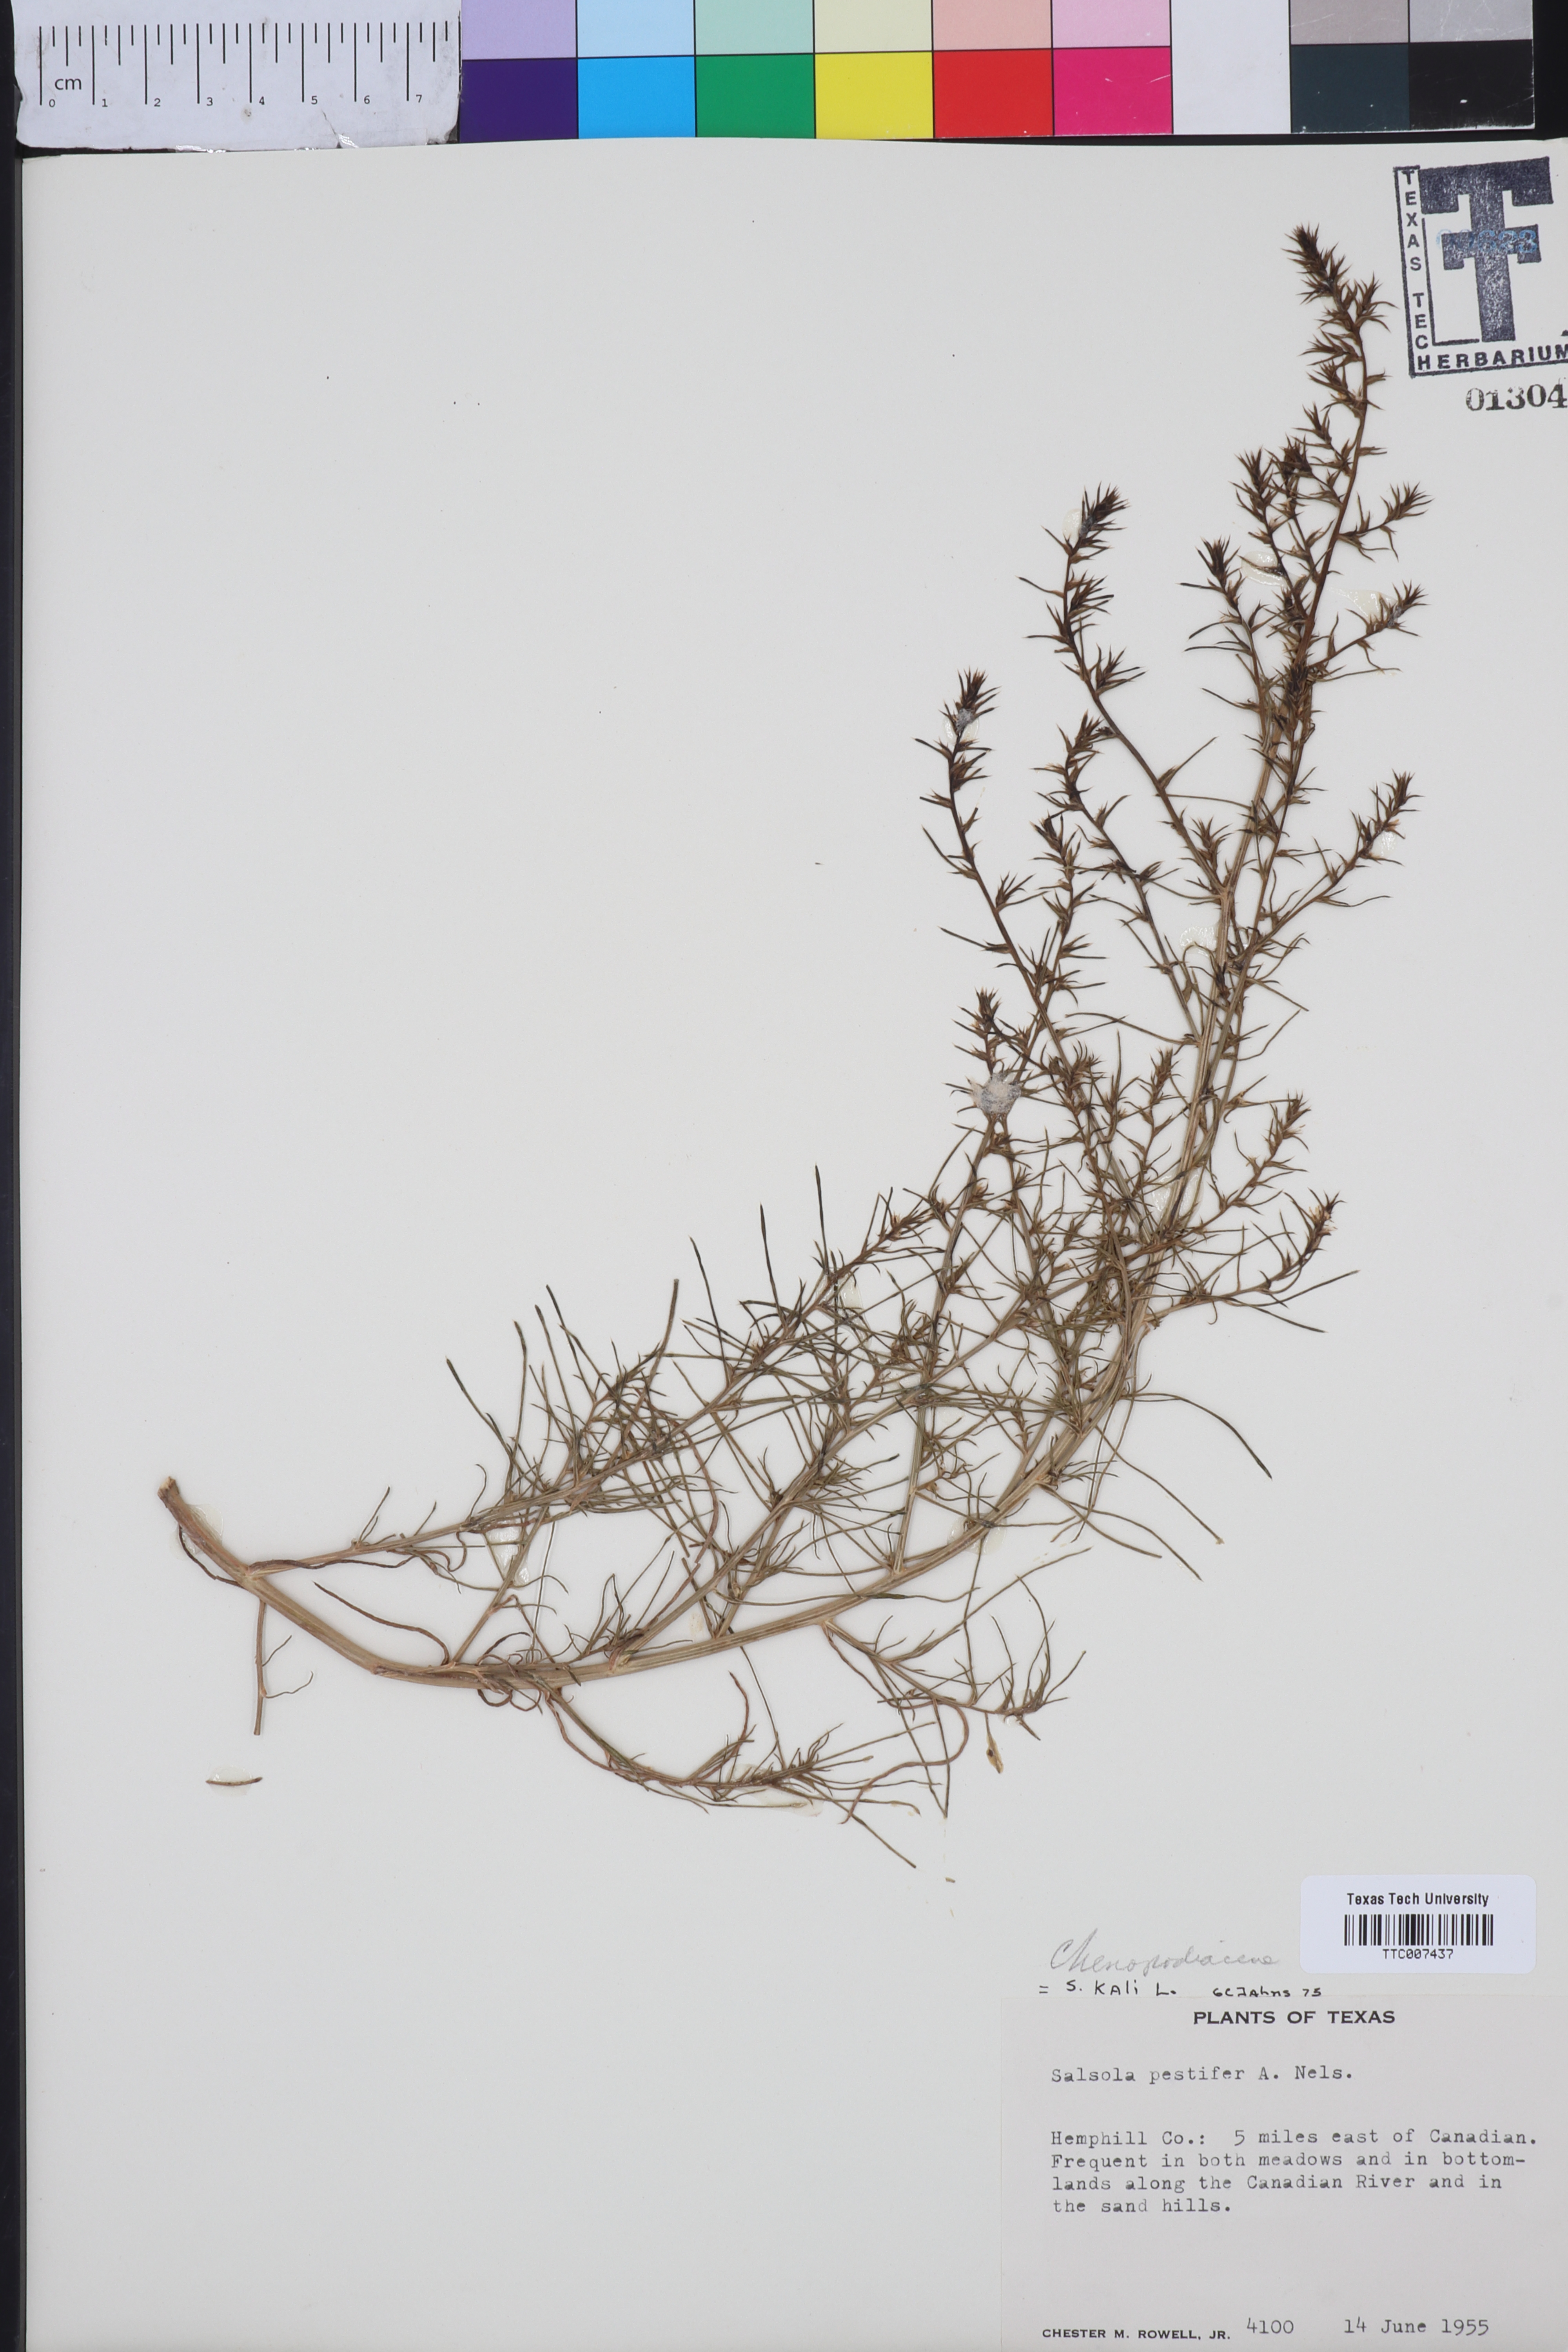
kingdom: Plantae
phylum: Tracheophyta
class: Magnoliopsida
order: Caryophyllales
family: Amaranthaceae
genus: Salsola
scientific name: Salsola kali
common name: Saltwort
